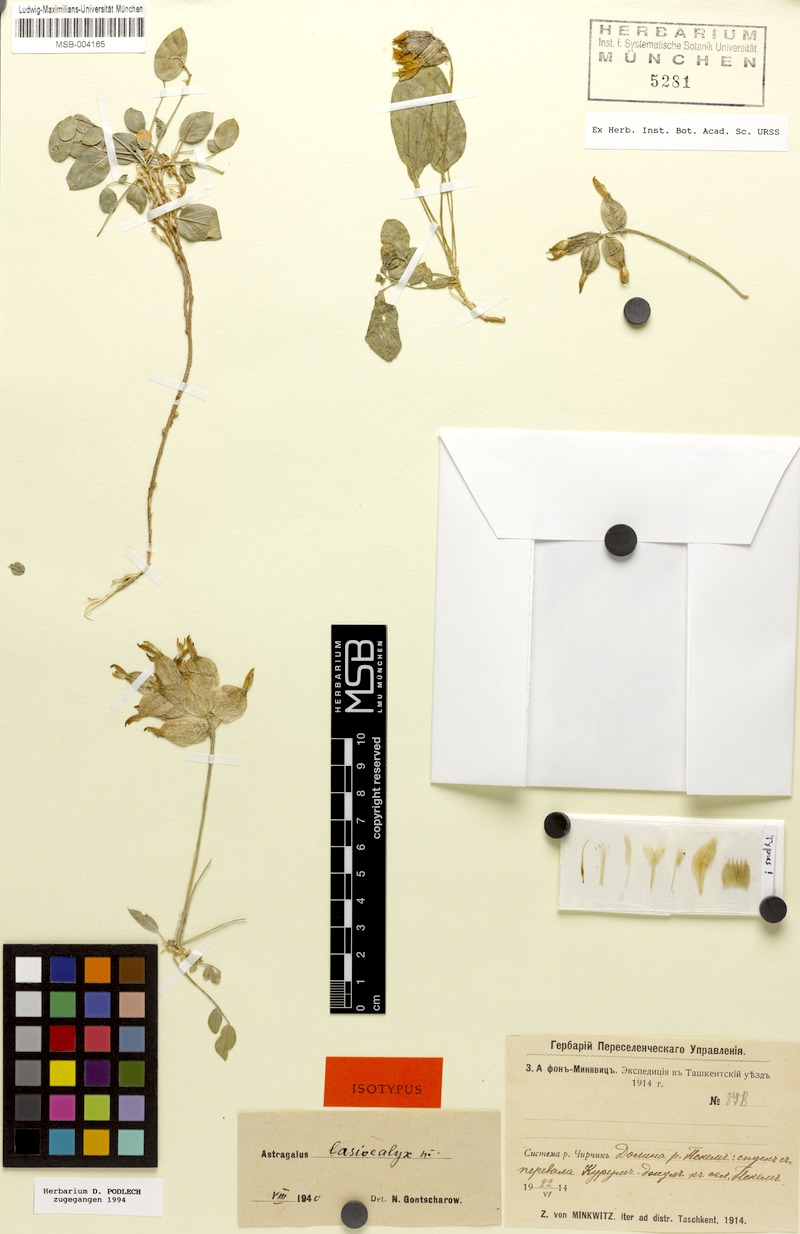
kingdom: Plantae
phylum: Tracheophyta
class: Magnoliopsida
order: Fabales
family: Fabaceae
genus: Astragalus
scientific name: Astragalus lasiocalyx
